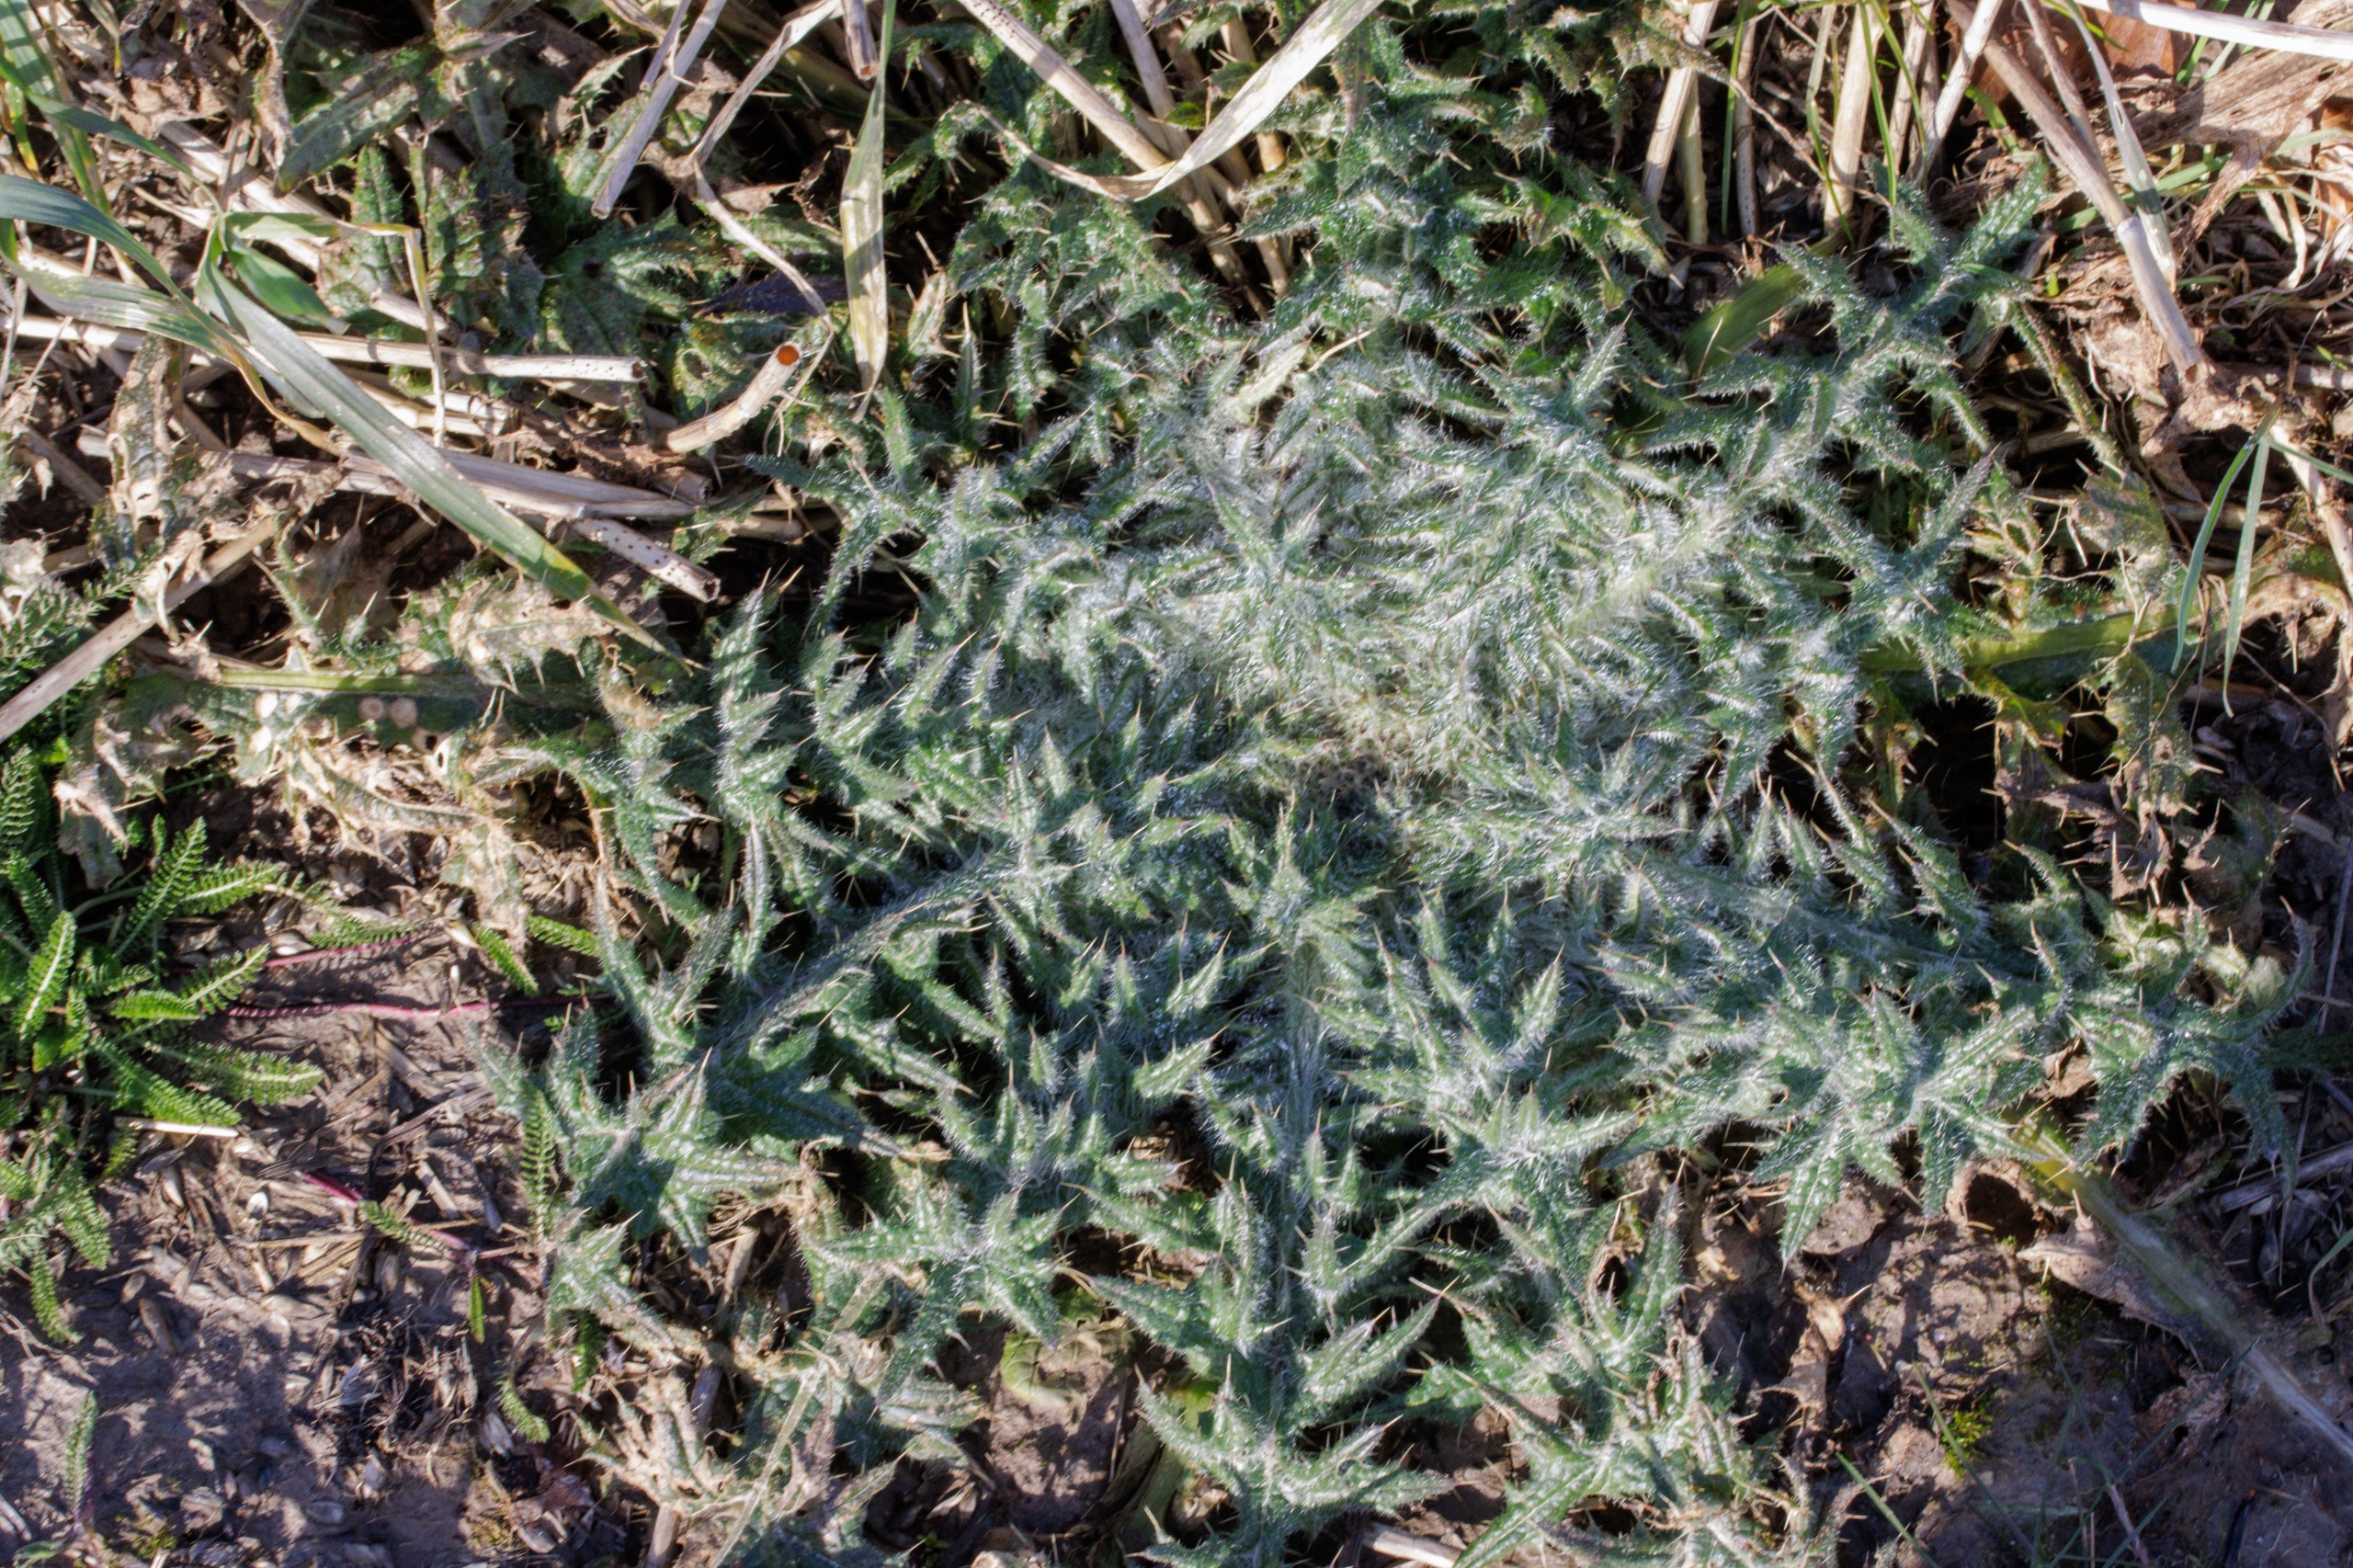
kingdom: Plantae
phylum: Tracheophyta
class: Magnoliopsida
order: Asterales
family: Asteraceae
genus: Cirsium
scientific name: Cirsium vulgare
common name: Horse-tidsel
